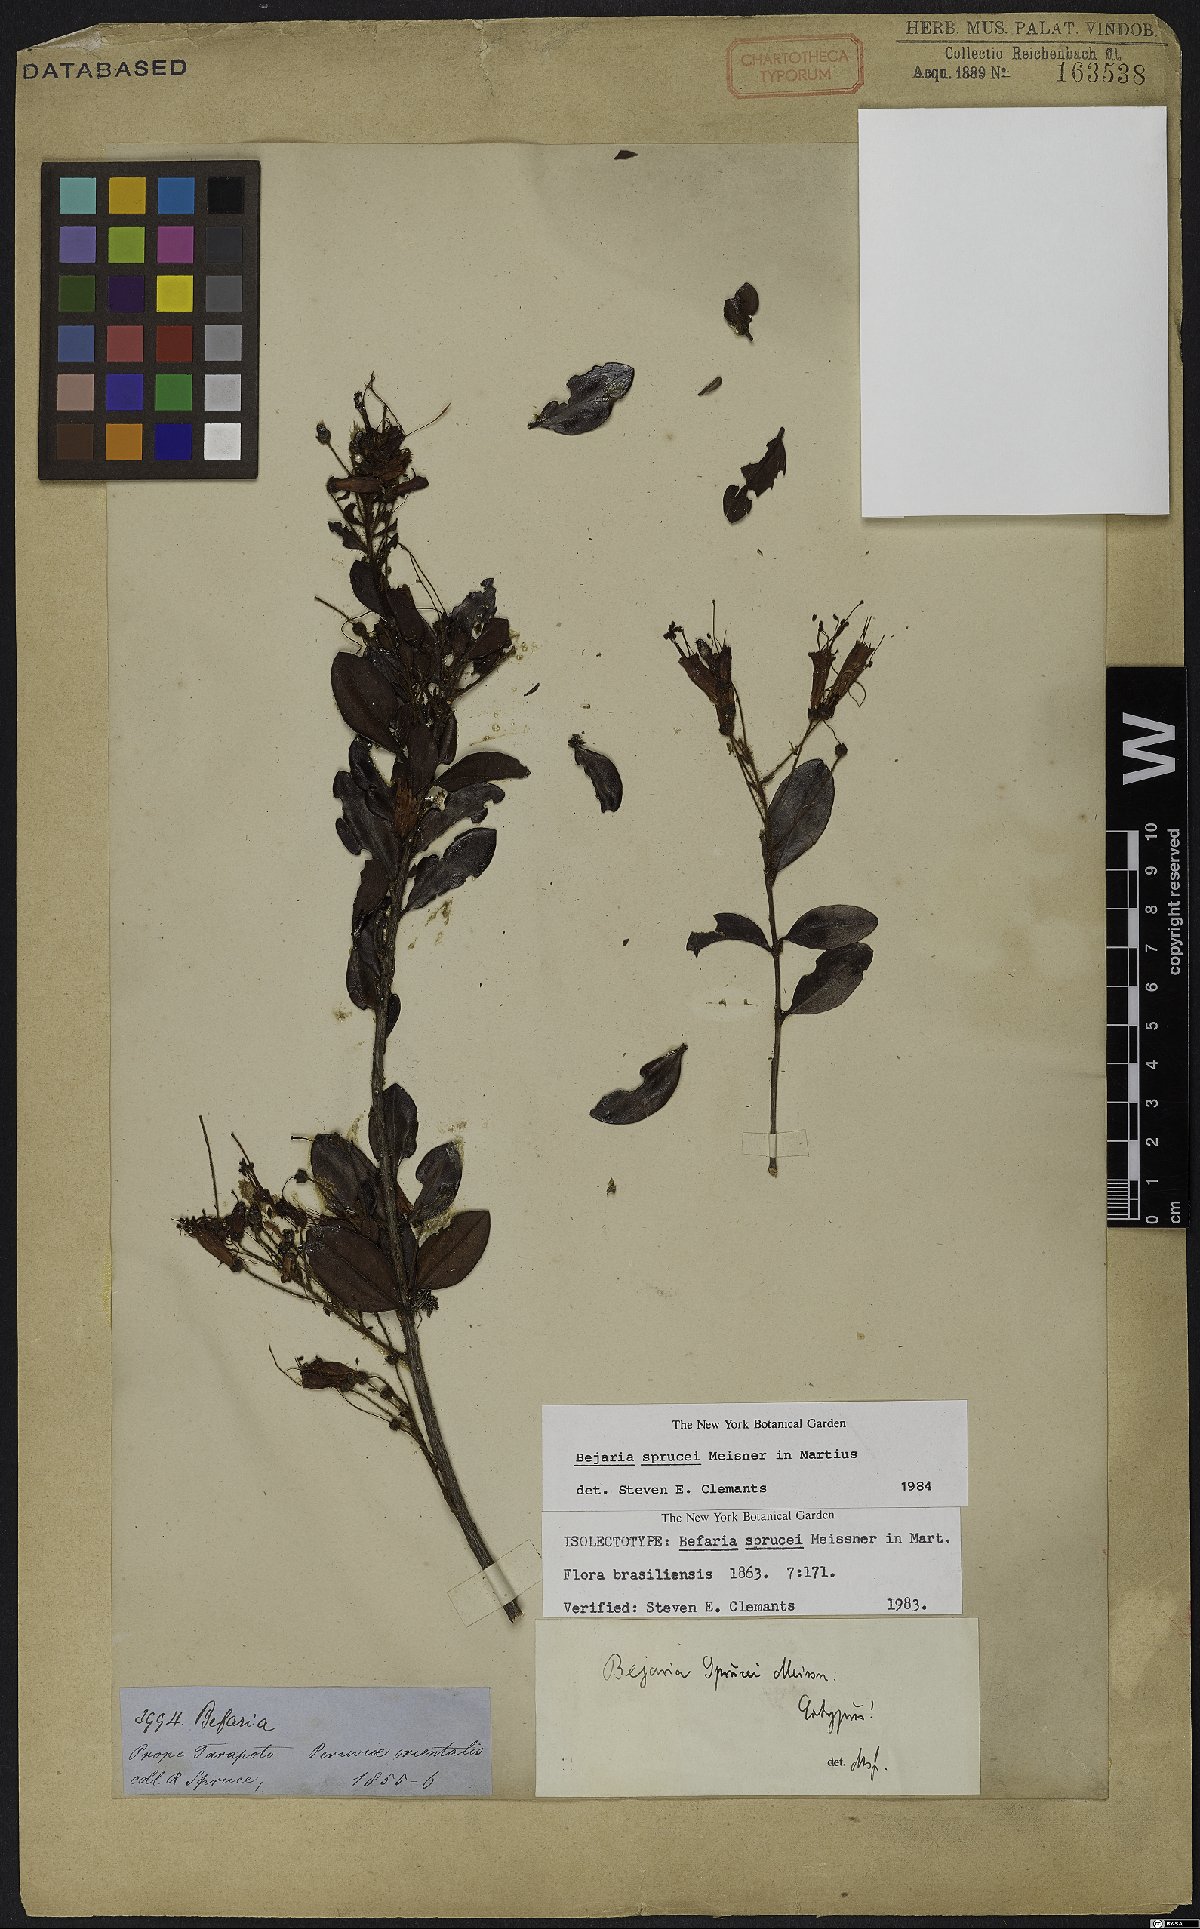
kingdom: Plantae
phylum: Tracheophyta
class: Magnoliopsida
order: Ericales
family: Ericaceae
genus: Bejaria
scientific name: Bejaria sprucei
